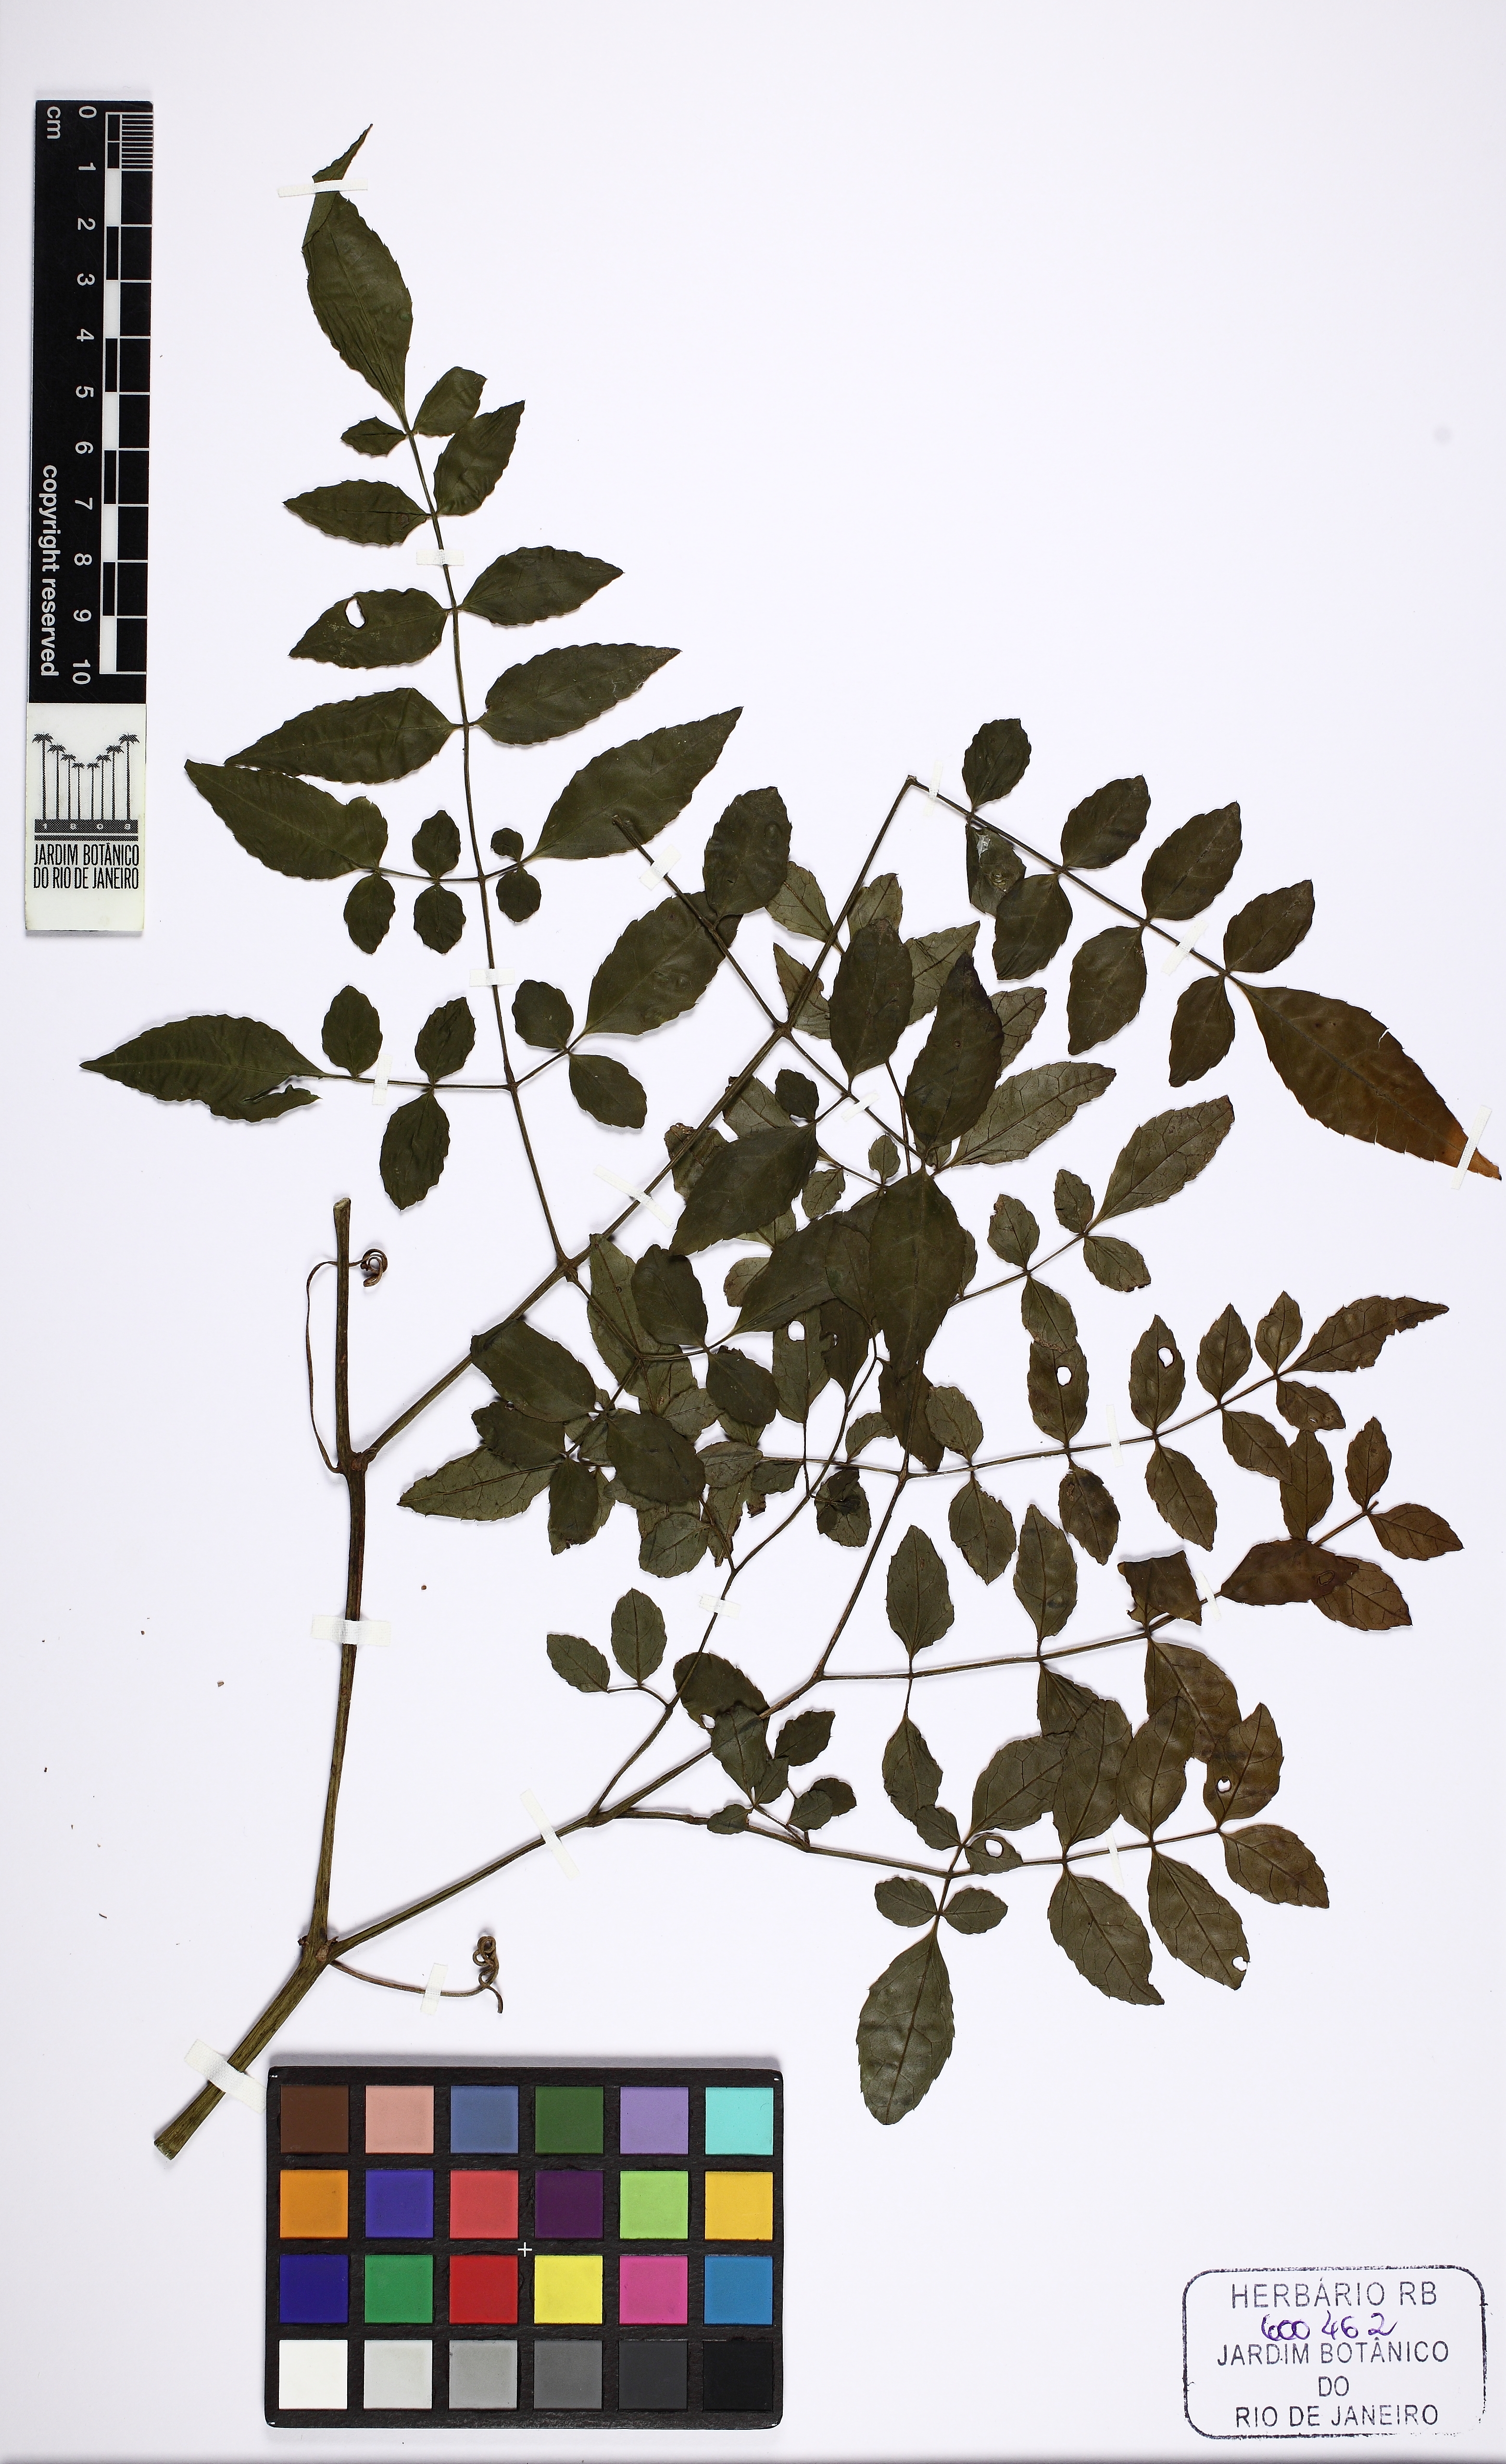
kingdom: Plantae
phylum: Tracheophyta
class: Magnoliopsida
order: Vitales
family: Vitaceae
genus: Cissus
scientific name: Cissus serroniana
